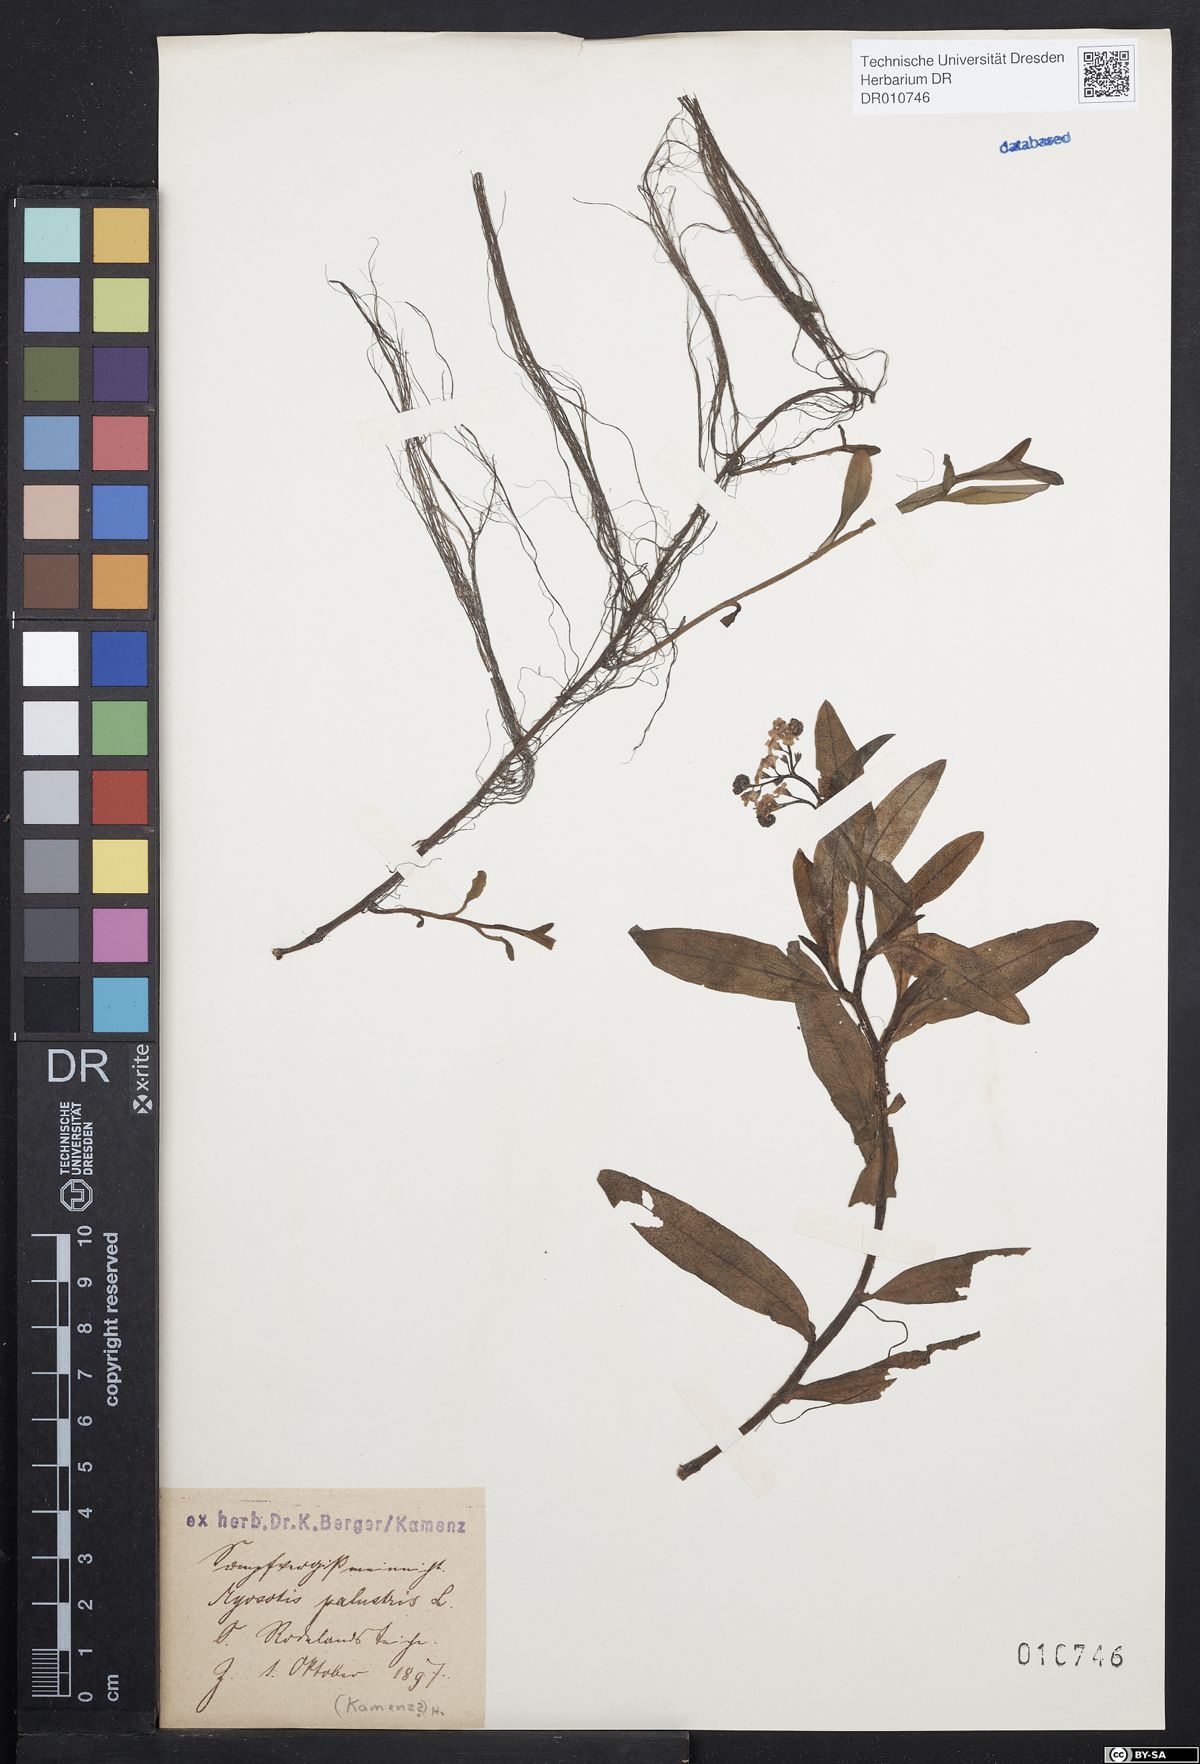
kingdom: Plantae
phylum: Tracheophyta
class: Magnoliopsida
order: Boraginales
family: Boraginaceae
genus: Myosotis
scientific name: Myosotis scorpioides
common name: Water forget-me-not
